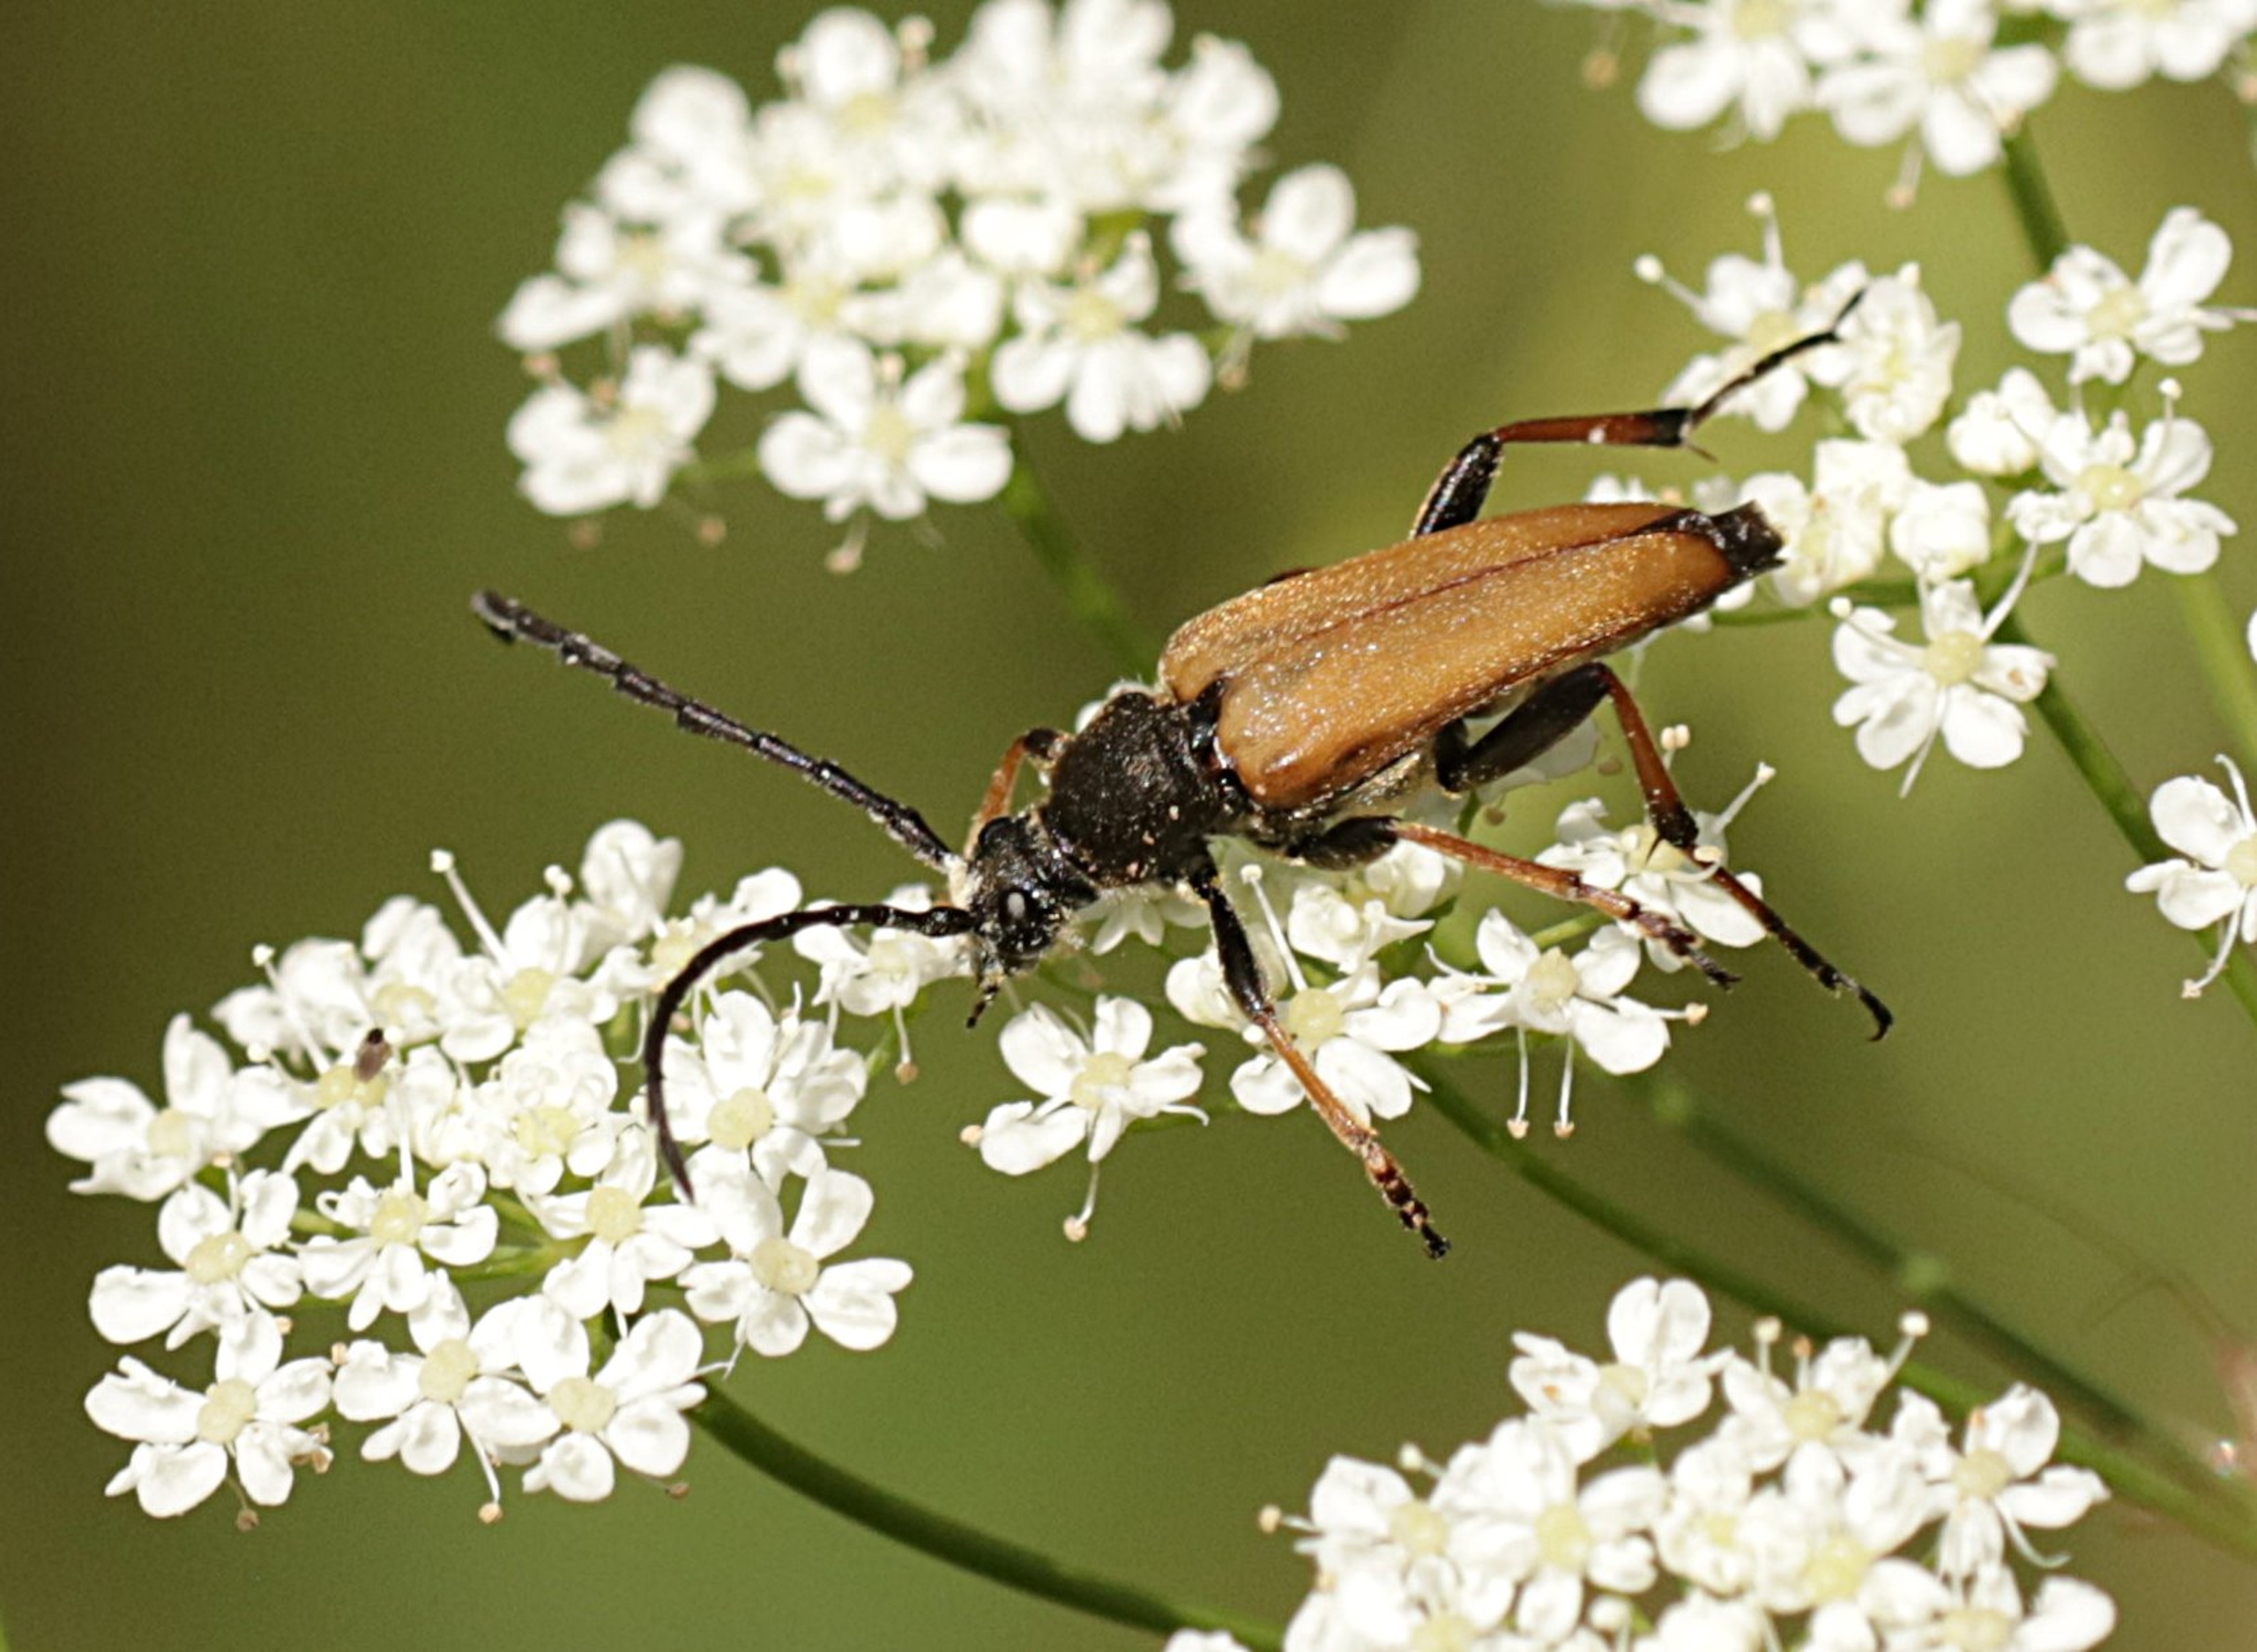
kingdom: Animalia
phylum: Arthropoda
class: Insecta
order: Coleoptera
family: Cerambycidae
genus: Stictoleptura
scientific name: Stictoleptura rubra
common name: Rød blomsterbuk
